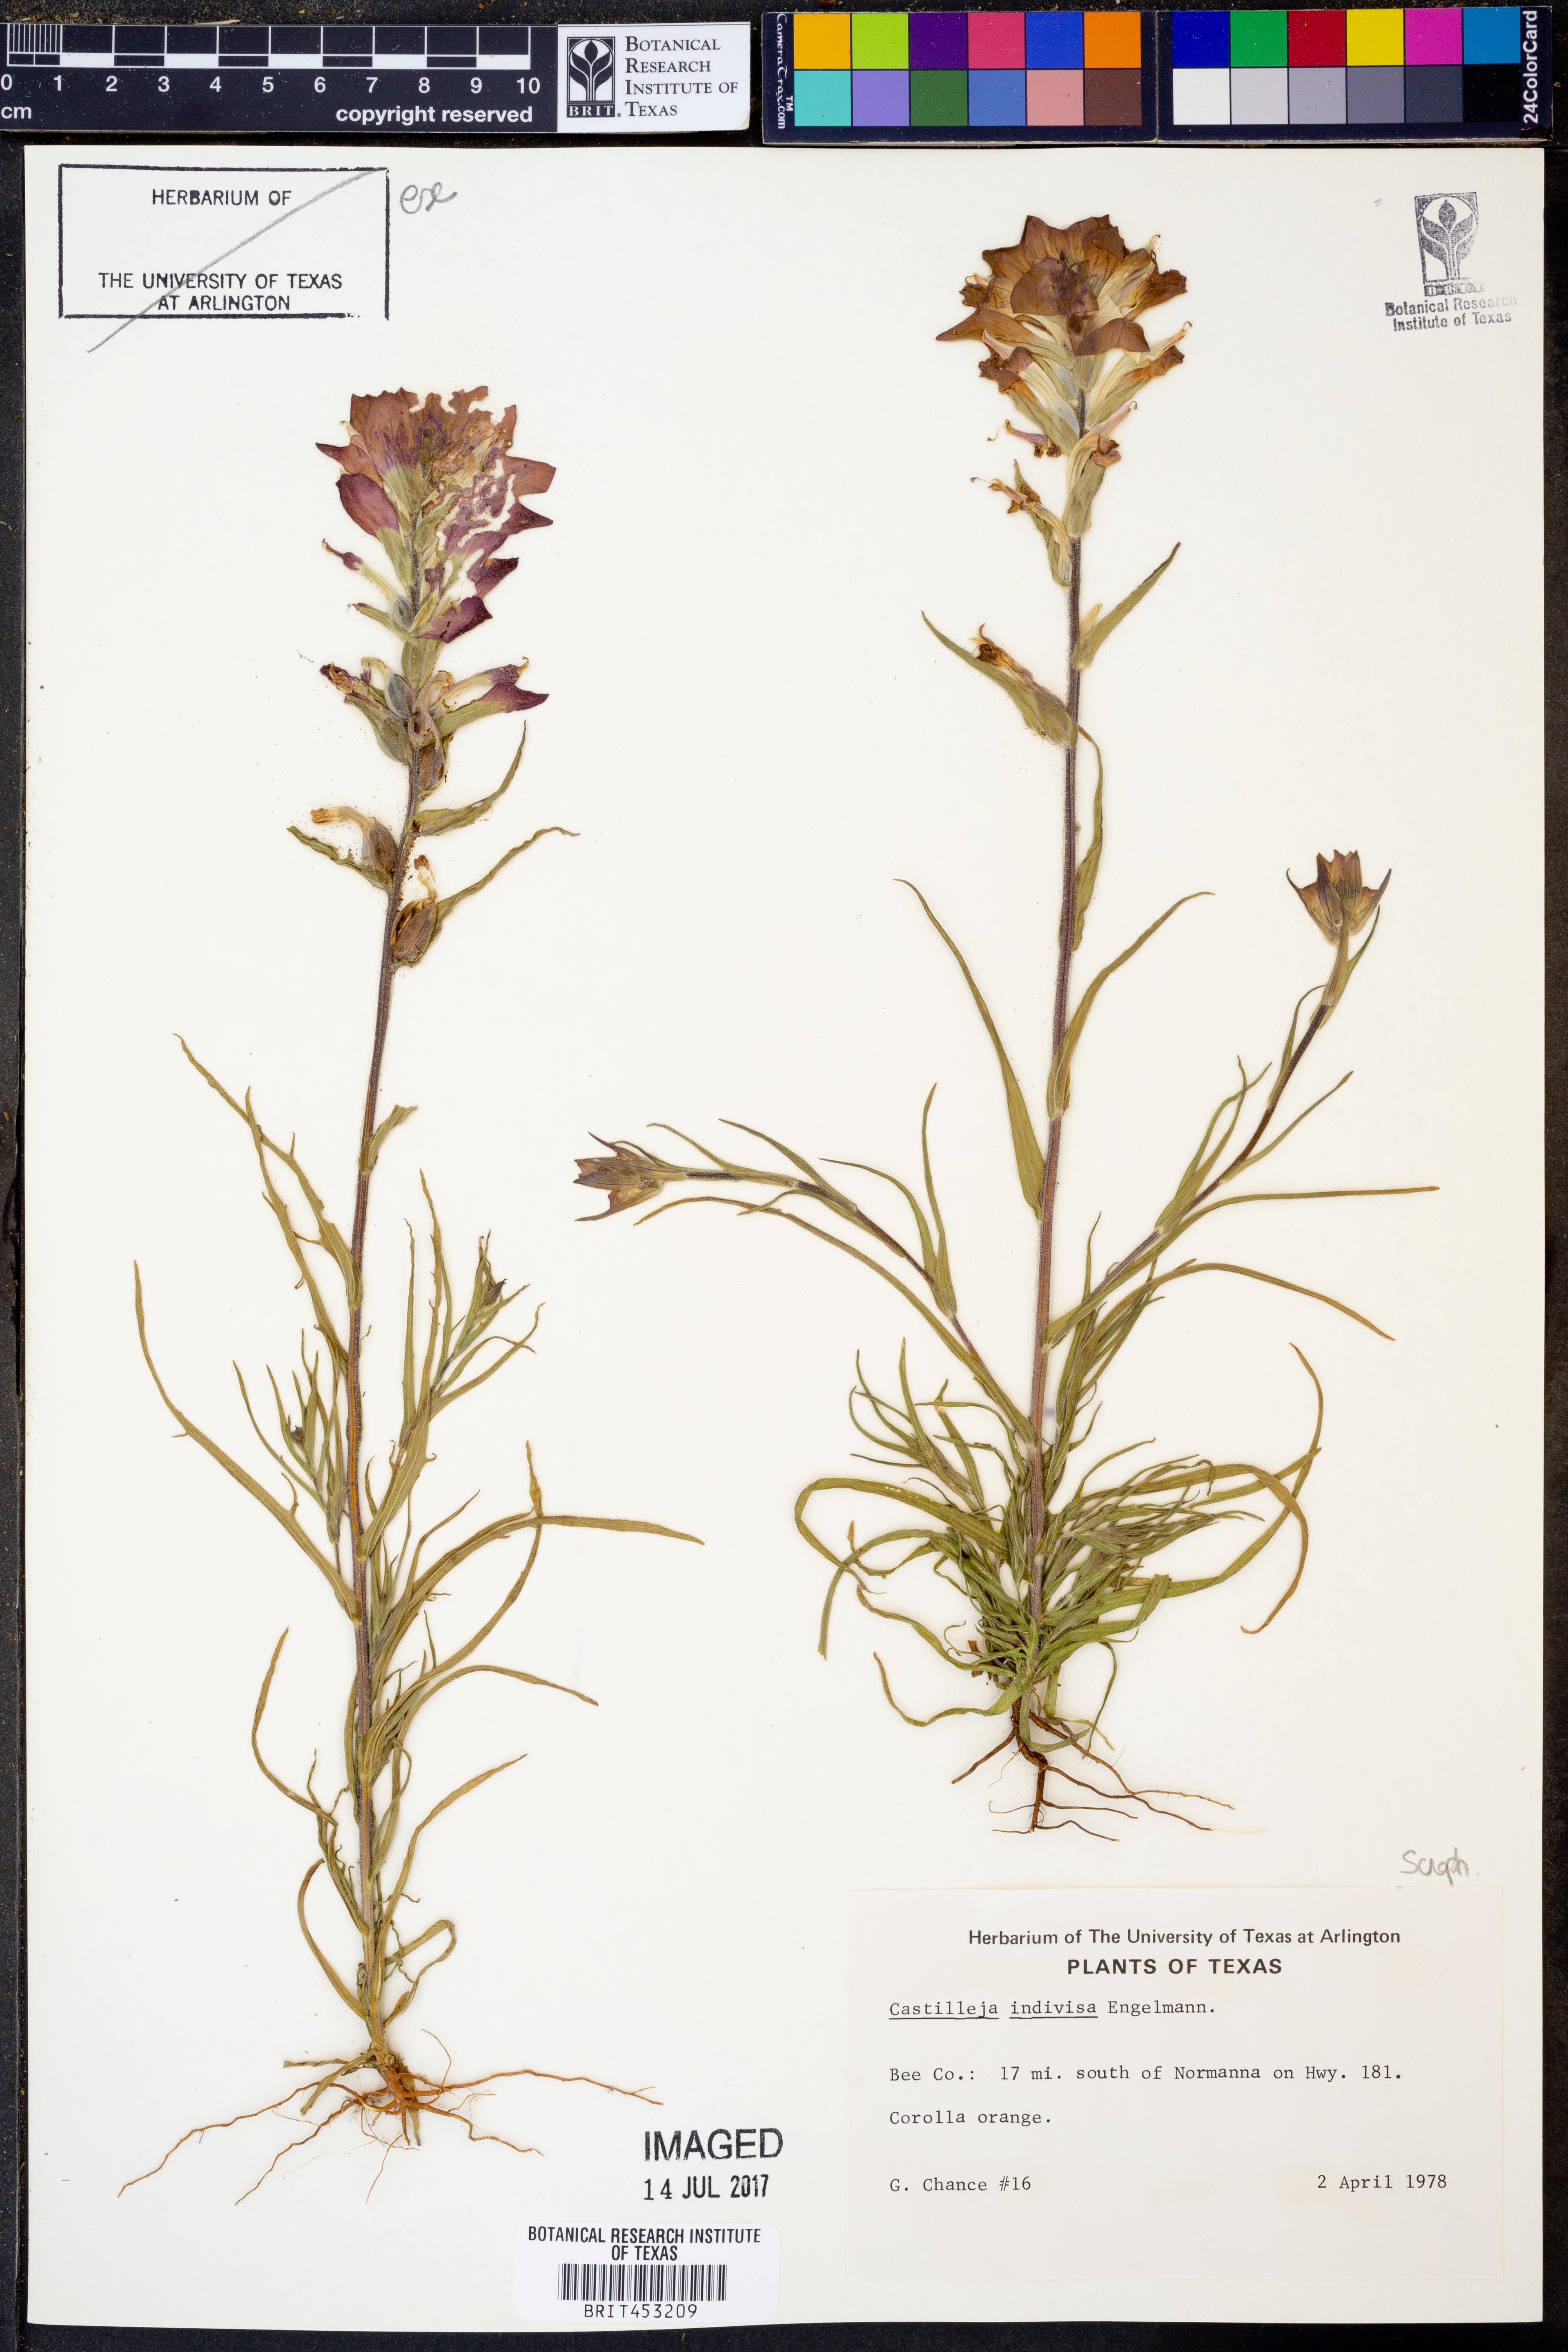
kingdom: Plantae
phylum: Tracheophyta
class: Magnoliopsida
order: Lamiales
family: Orobanchaceae
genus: Castilleja
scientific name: Castilleja indivisa
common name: Texas paintbrush
